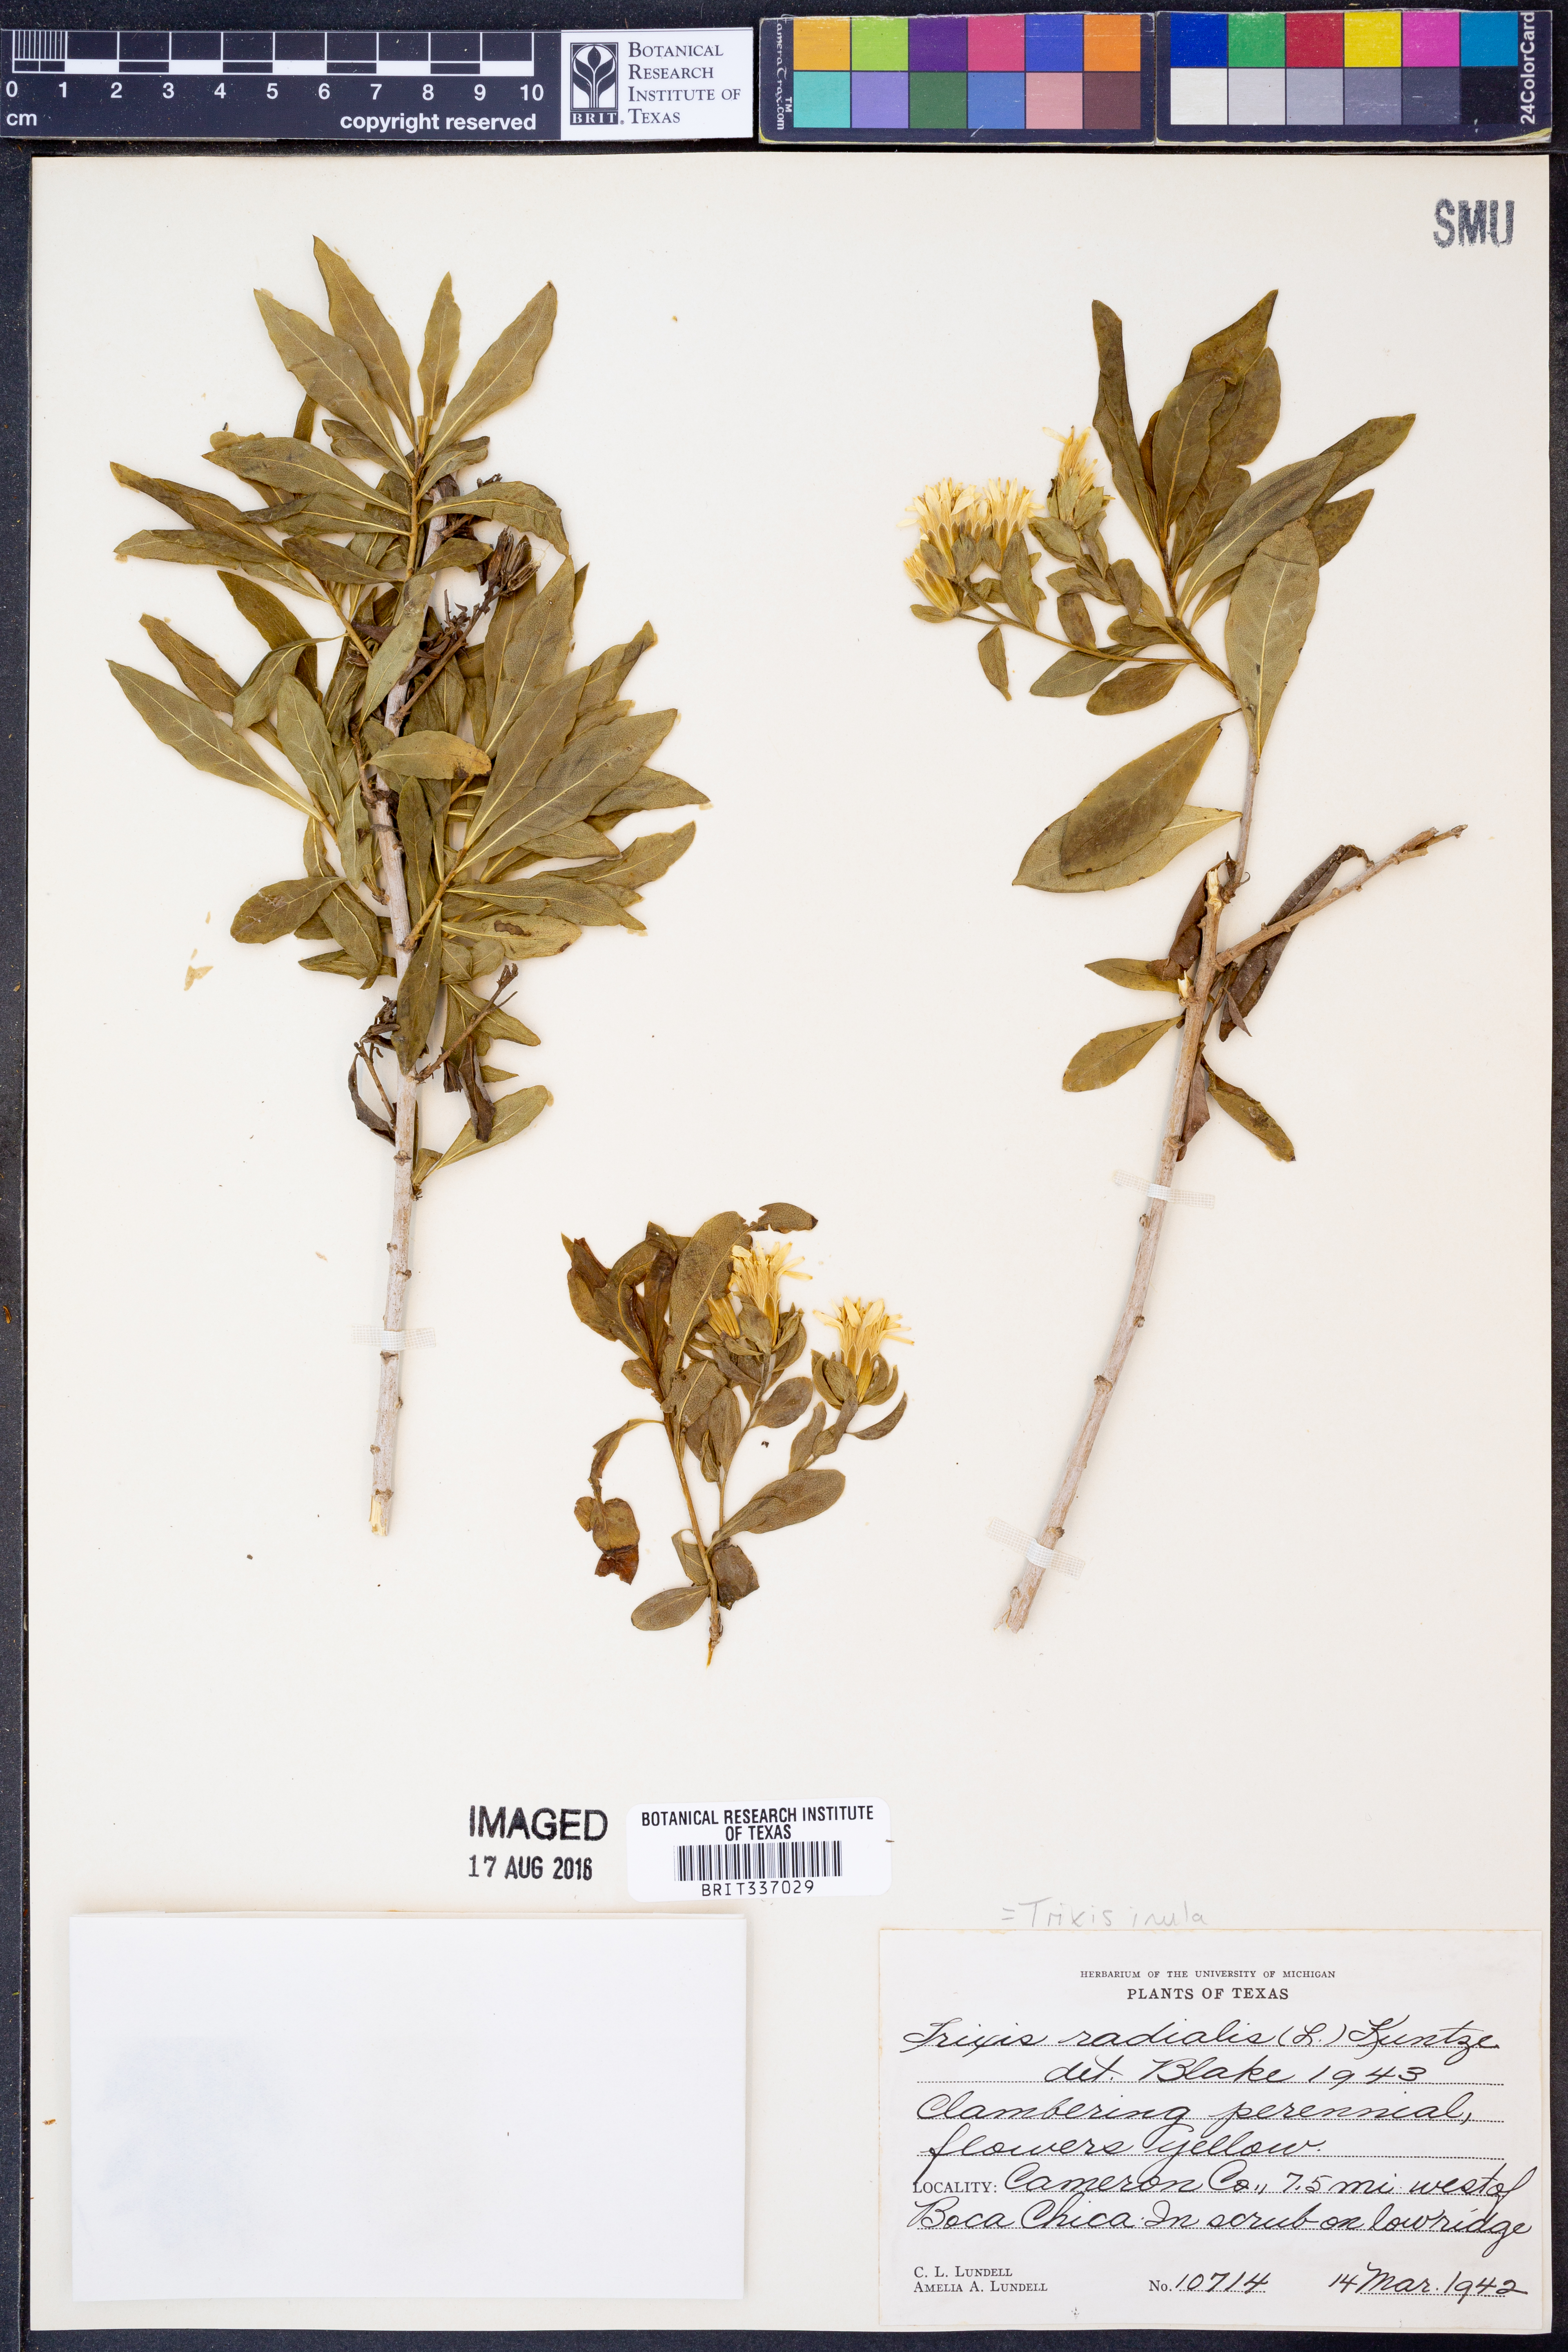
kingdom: Plantae
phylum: Tracheophyta
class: Magnoliopsida
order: Asterales
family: Asteraceae
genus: Trixis
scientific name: Trixis inula
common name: Tropical threefold
